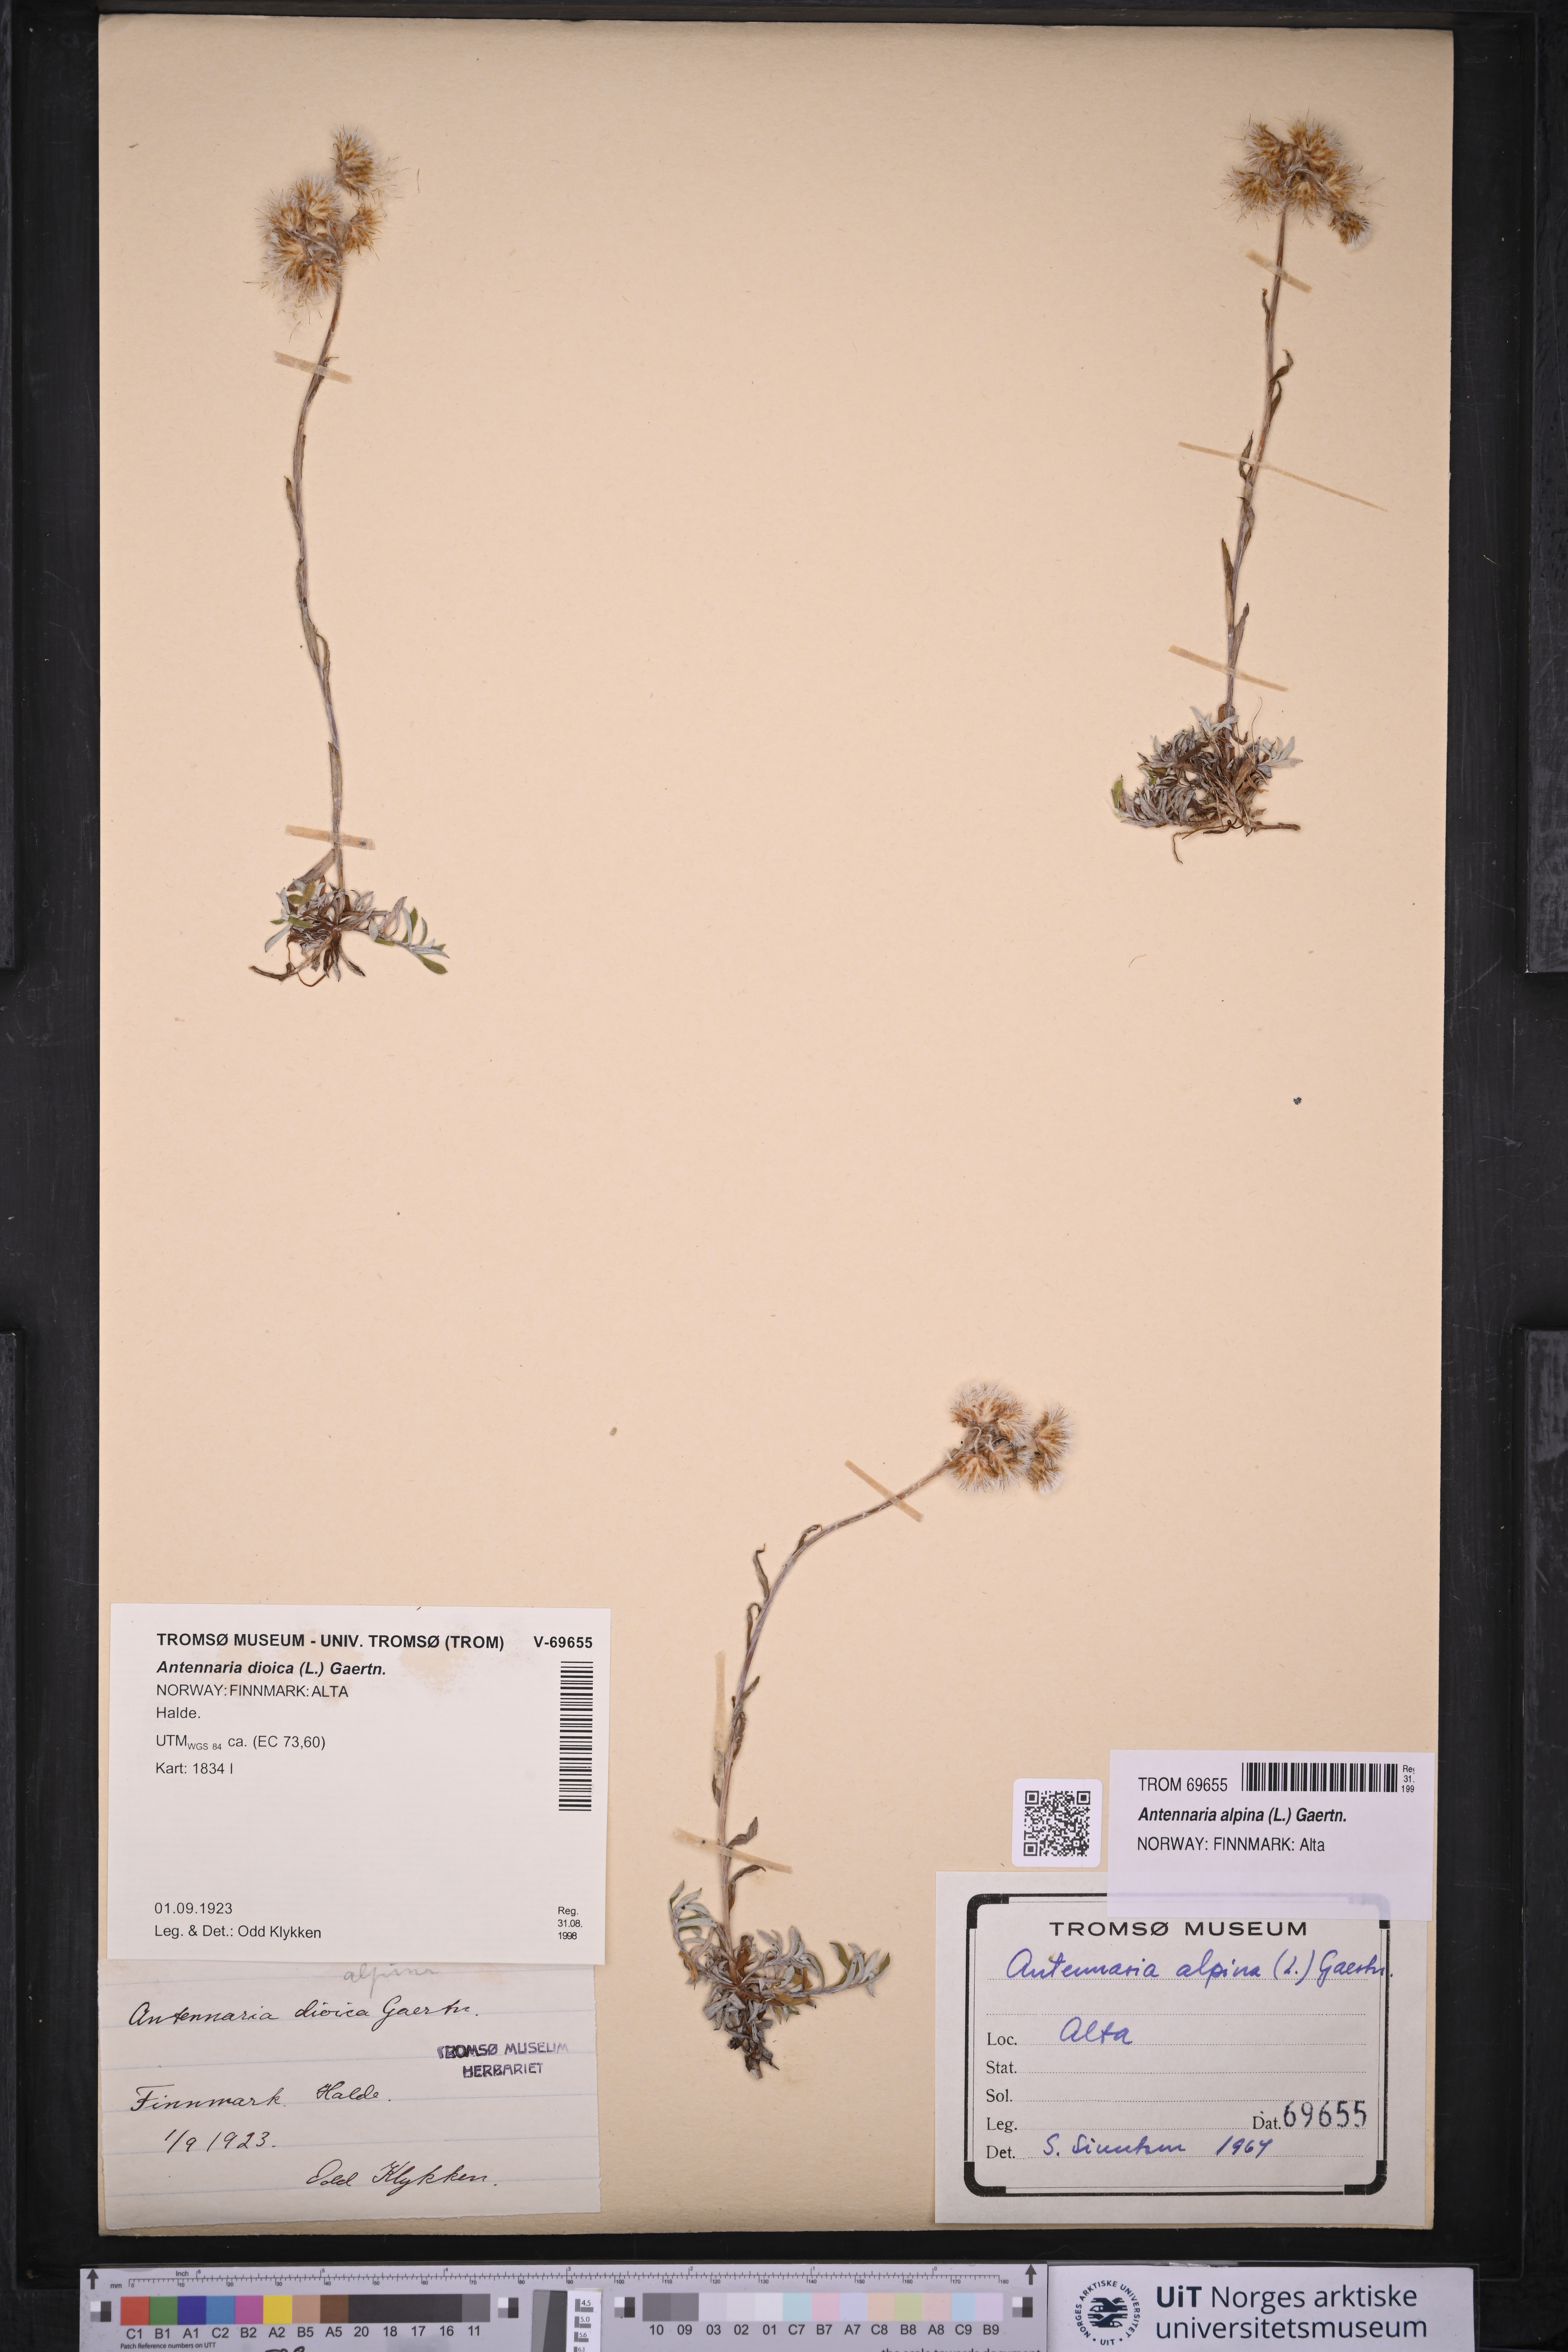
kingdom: Plantae
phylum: Tracheophyta
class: Magnoliopsida
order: Asterales
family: Asteraceae
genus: Antennaria
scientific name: Antennaria alpina
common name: Alpine pussytoes
